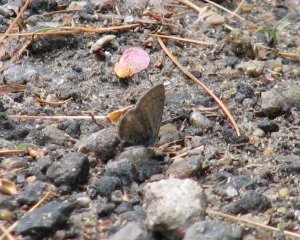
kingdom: Animalia
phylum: Arthropoda
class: Insecta
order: Lepidoptera
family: Lycaenidae
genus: Celastrina
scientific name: Celastrina ladon
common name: Spring Azure
